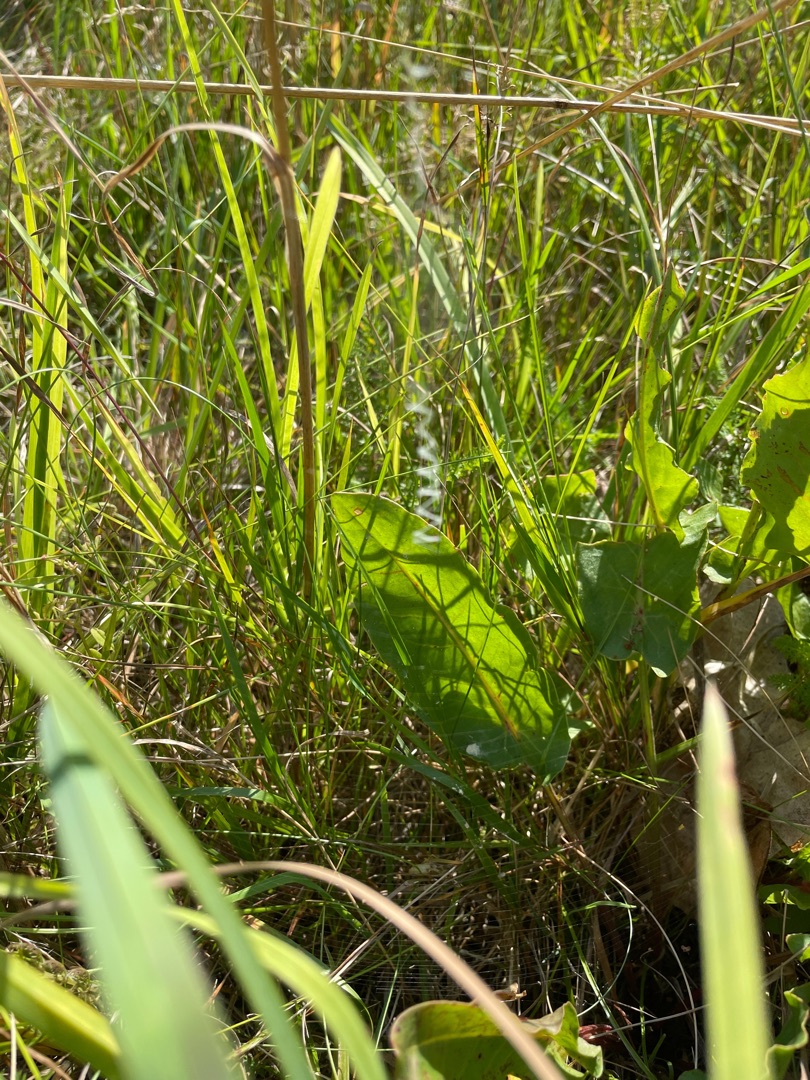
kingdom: Animalia
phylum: Arthropoda
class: Arachnida
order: Araneae
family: Araneidae
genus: Argiope
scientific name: Argiope bruennichi
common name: Hvepseedderkop
